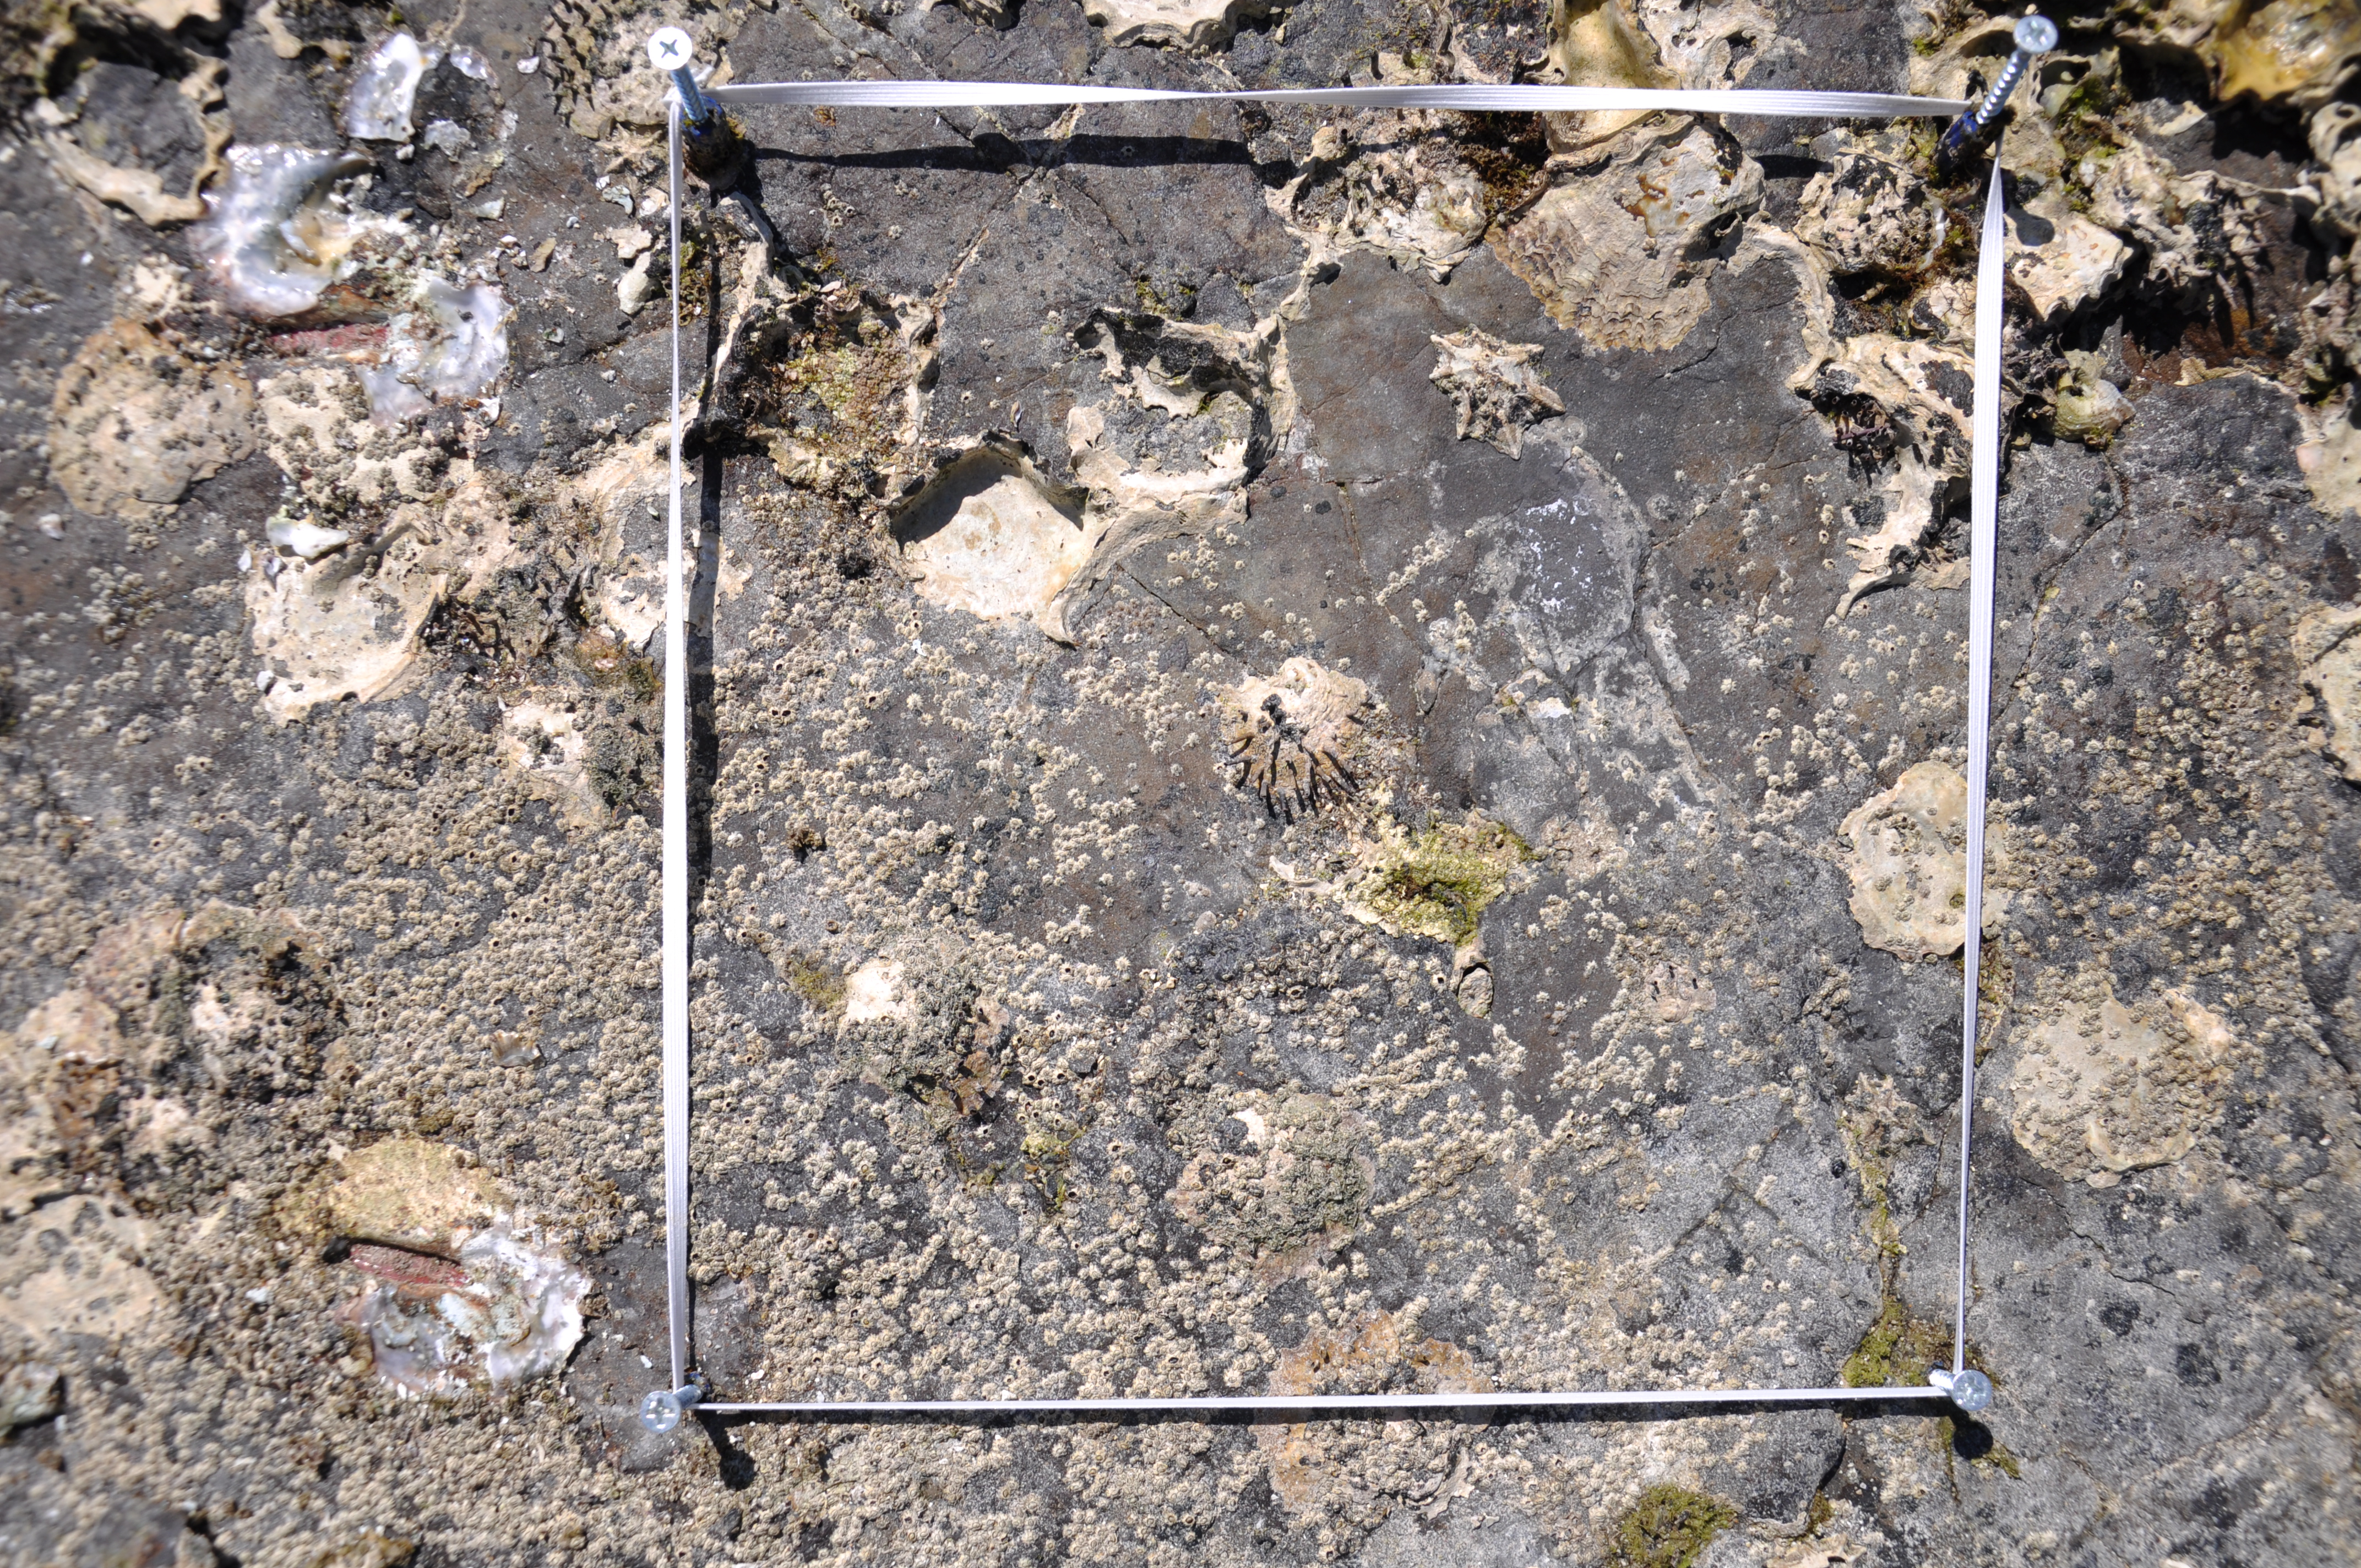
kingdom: Animalia
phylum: Arthropoda
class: Maxillopoda
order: Sessilia
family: Chthamalidae
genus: Chthamalus
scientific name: Chthamalus challengeri
